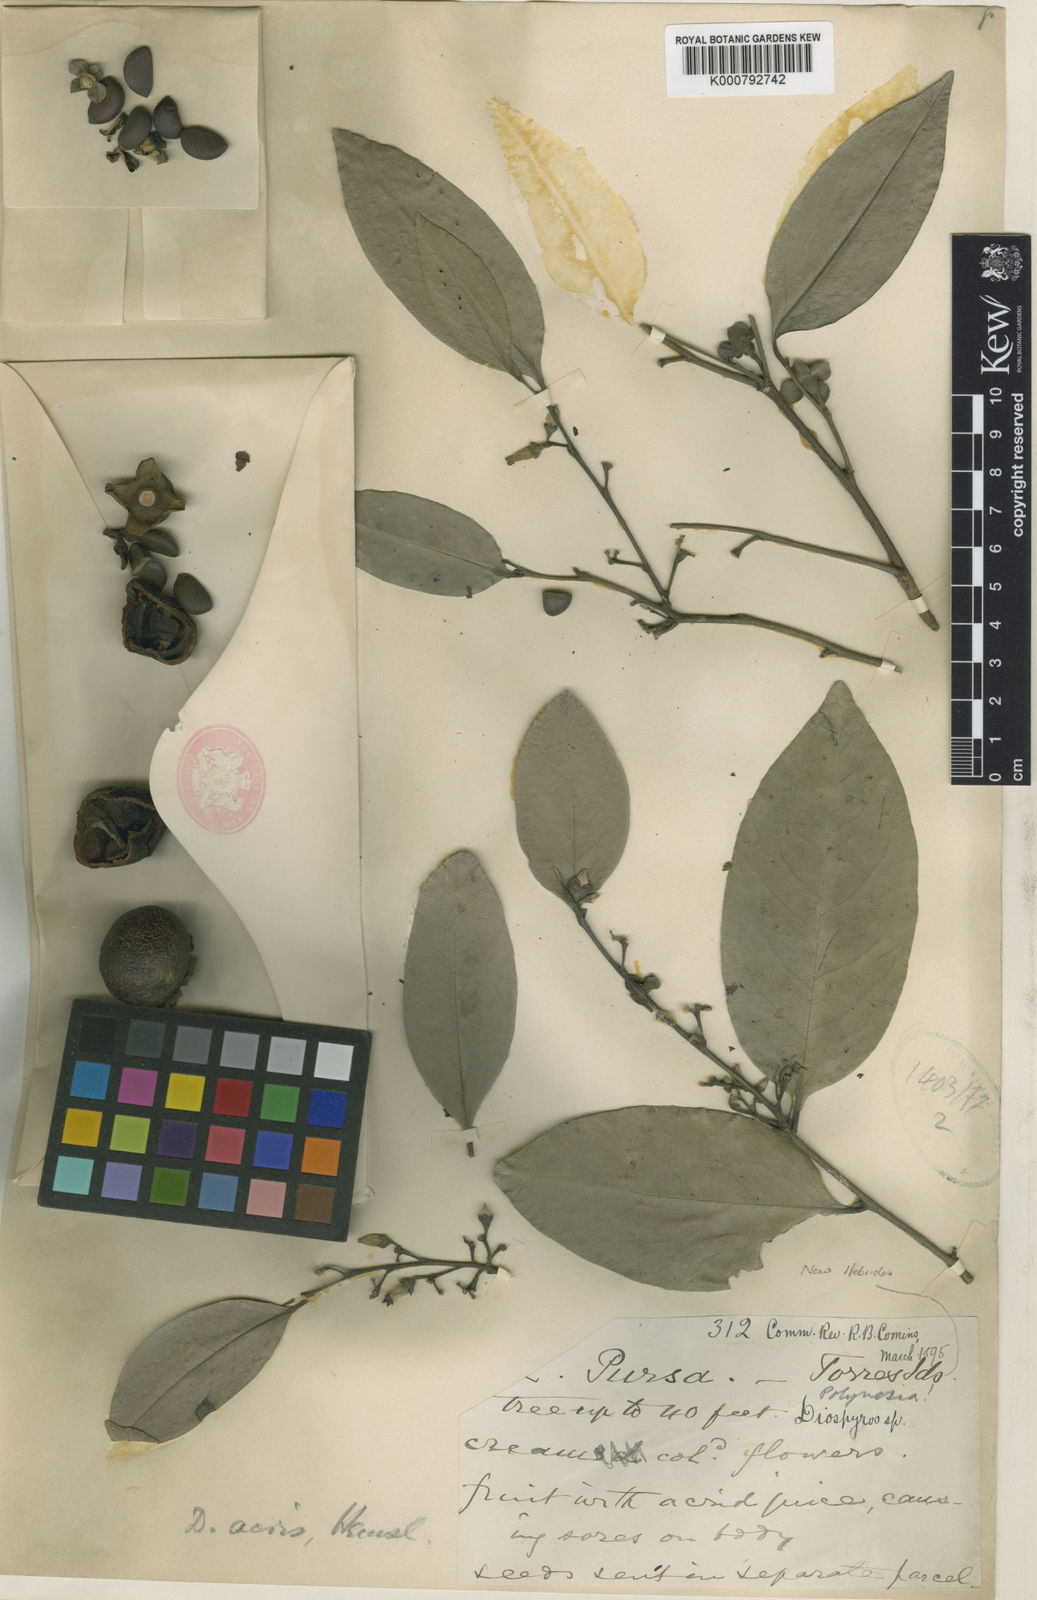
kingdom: Plantae
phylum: Tracheophyta
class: Magnoliopsida
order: Ericales
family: Ebenaceae
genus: Diospyros
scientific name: Diospyros acris
